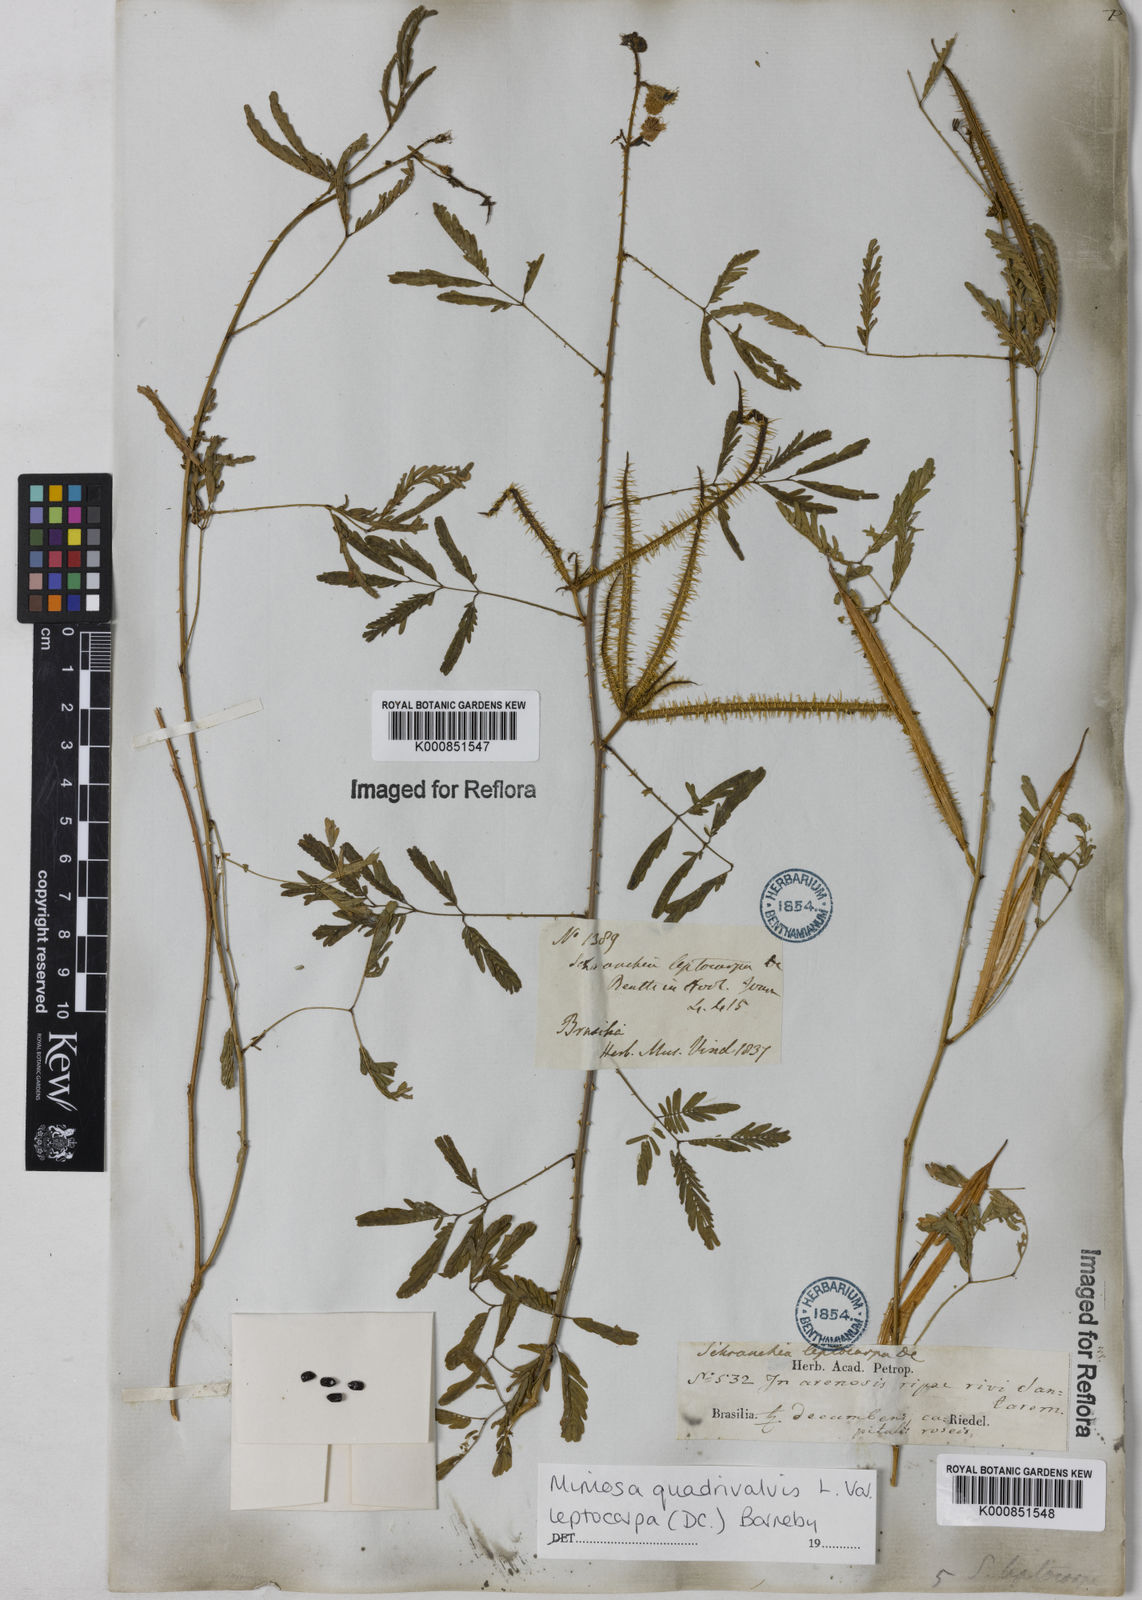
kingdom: Plantae
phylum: Tracheophyta
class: Magnoliopsida
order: Fabales
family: Fabaceae
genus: Mimosa
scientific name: Mimosa candollei
